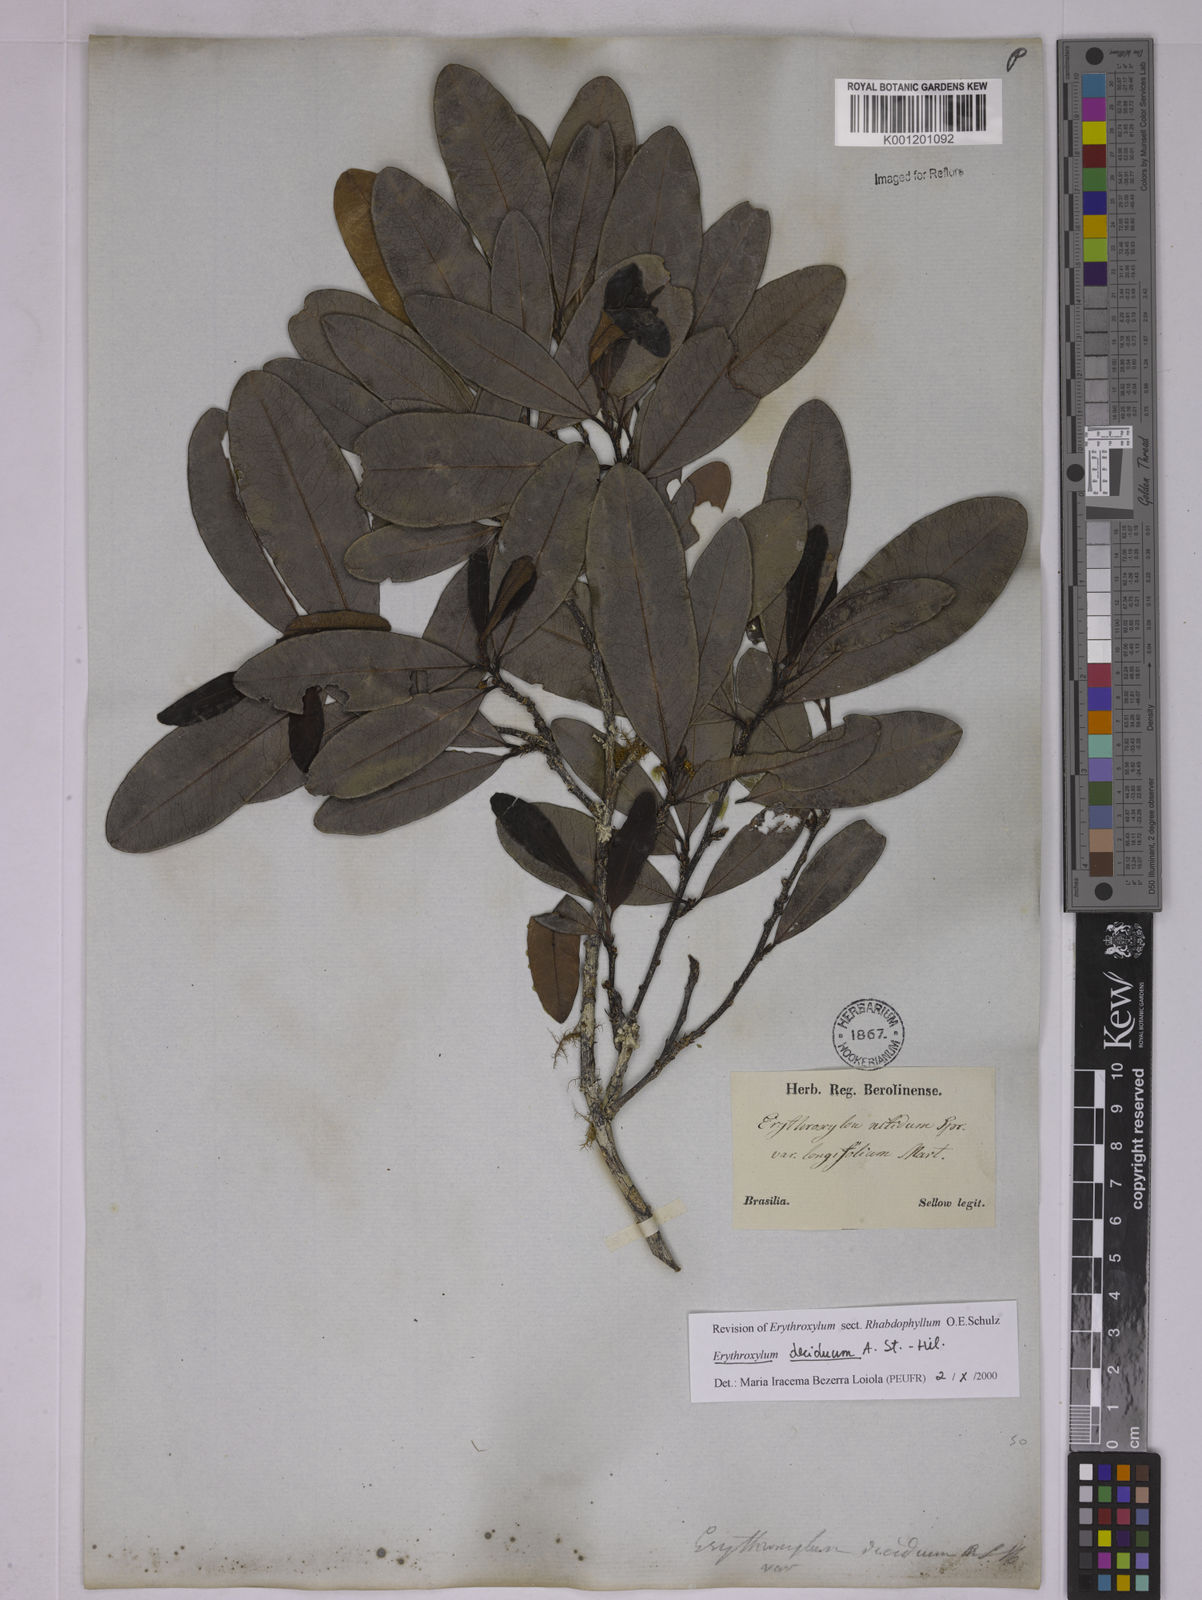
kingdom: Plantae
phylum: Tracheophyta
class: Magnoliopsida
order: Malpighiales
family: Erythroxylaceae
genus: Erythroxylum
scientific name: Erythroxylum deciduum
